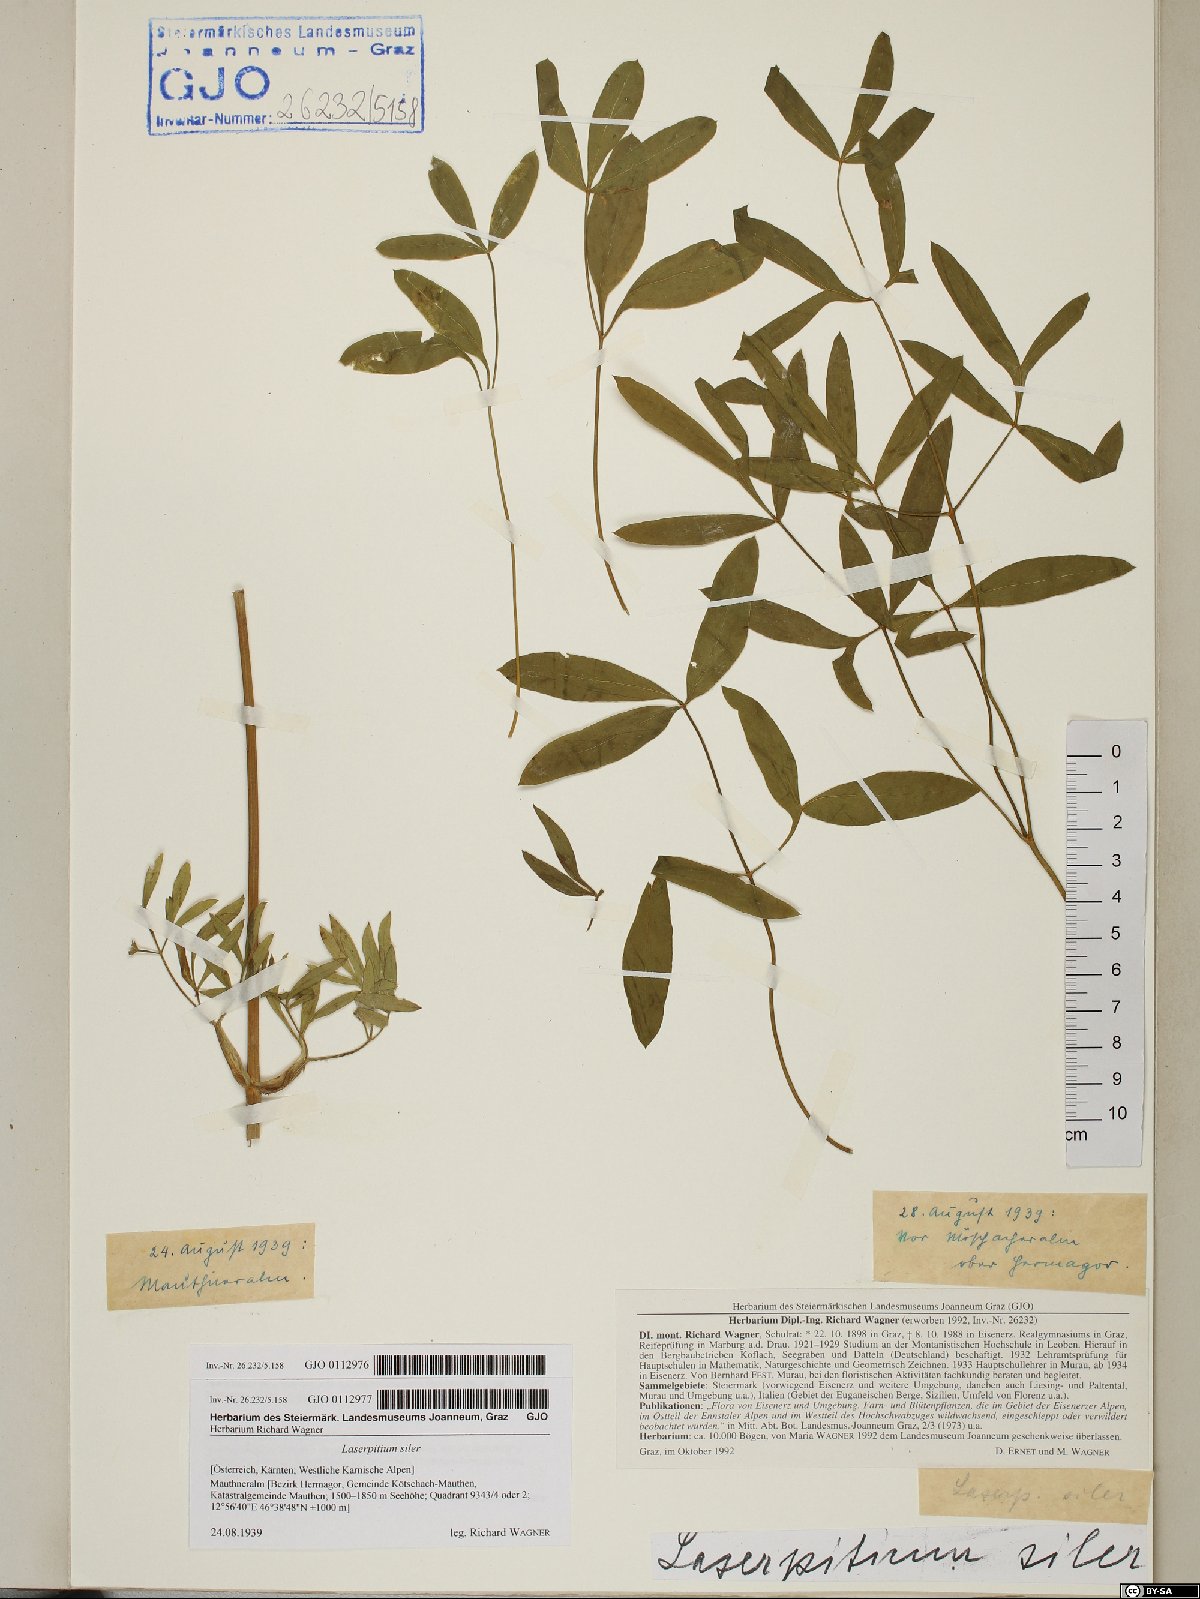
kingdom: Plantae
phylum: Tracheophyta
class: Magnoliopsida
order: Apiales
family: Apiaceae
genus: Siler
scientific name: Siler montanum
